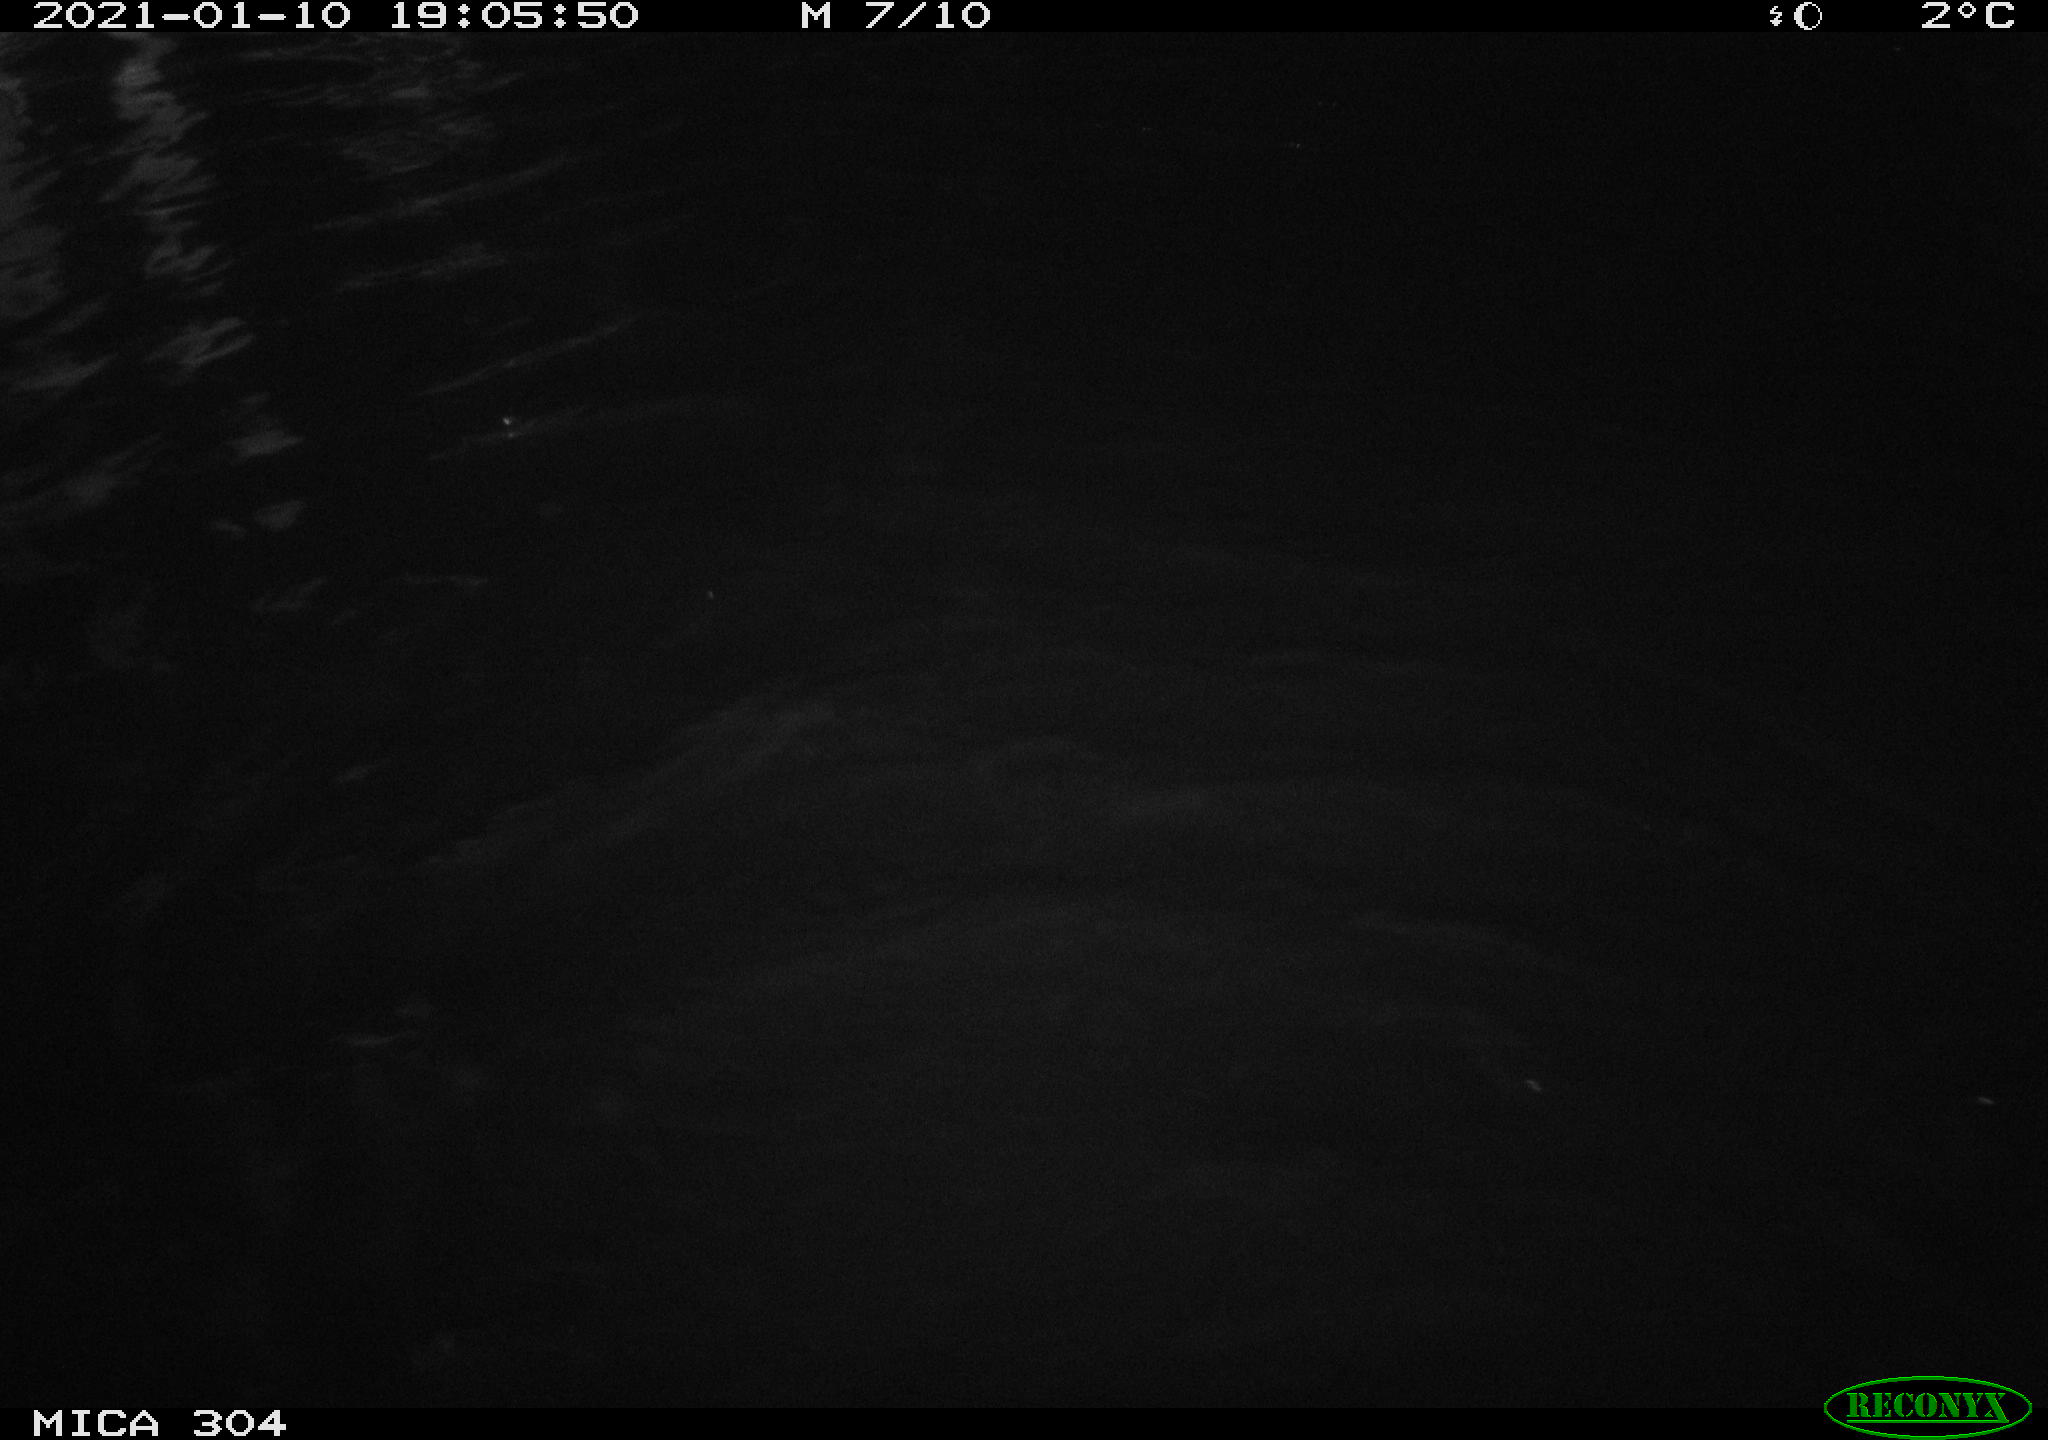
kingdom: Animalia
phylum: Chordata
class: Mammalia
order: Rodentia
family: Muridae
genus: Rattus
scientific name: Rattus norvegicus
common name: Brown rat
